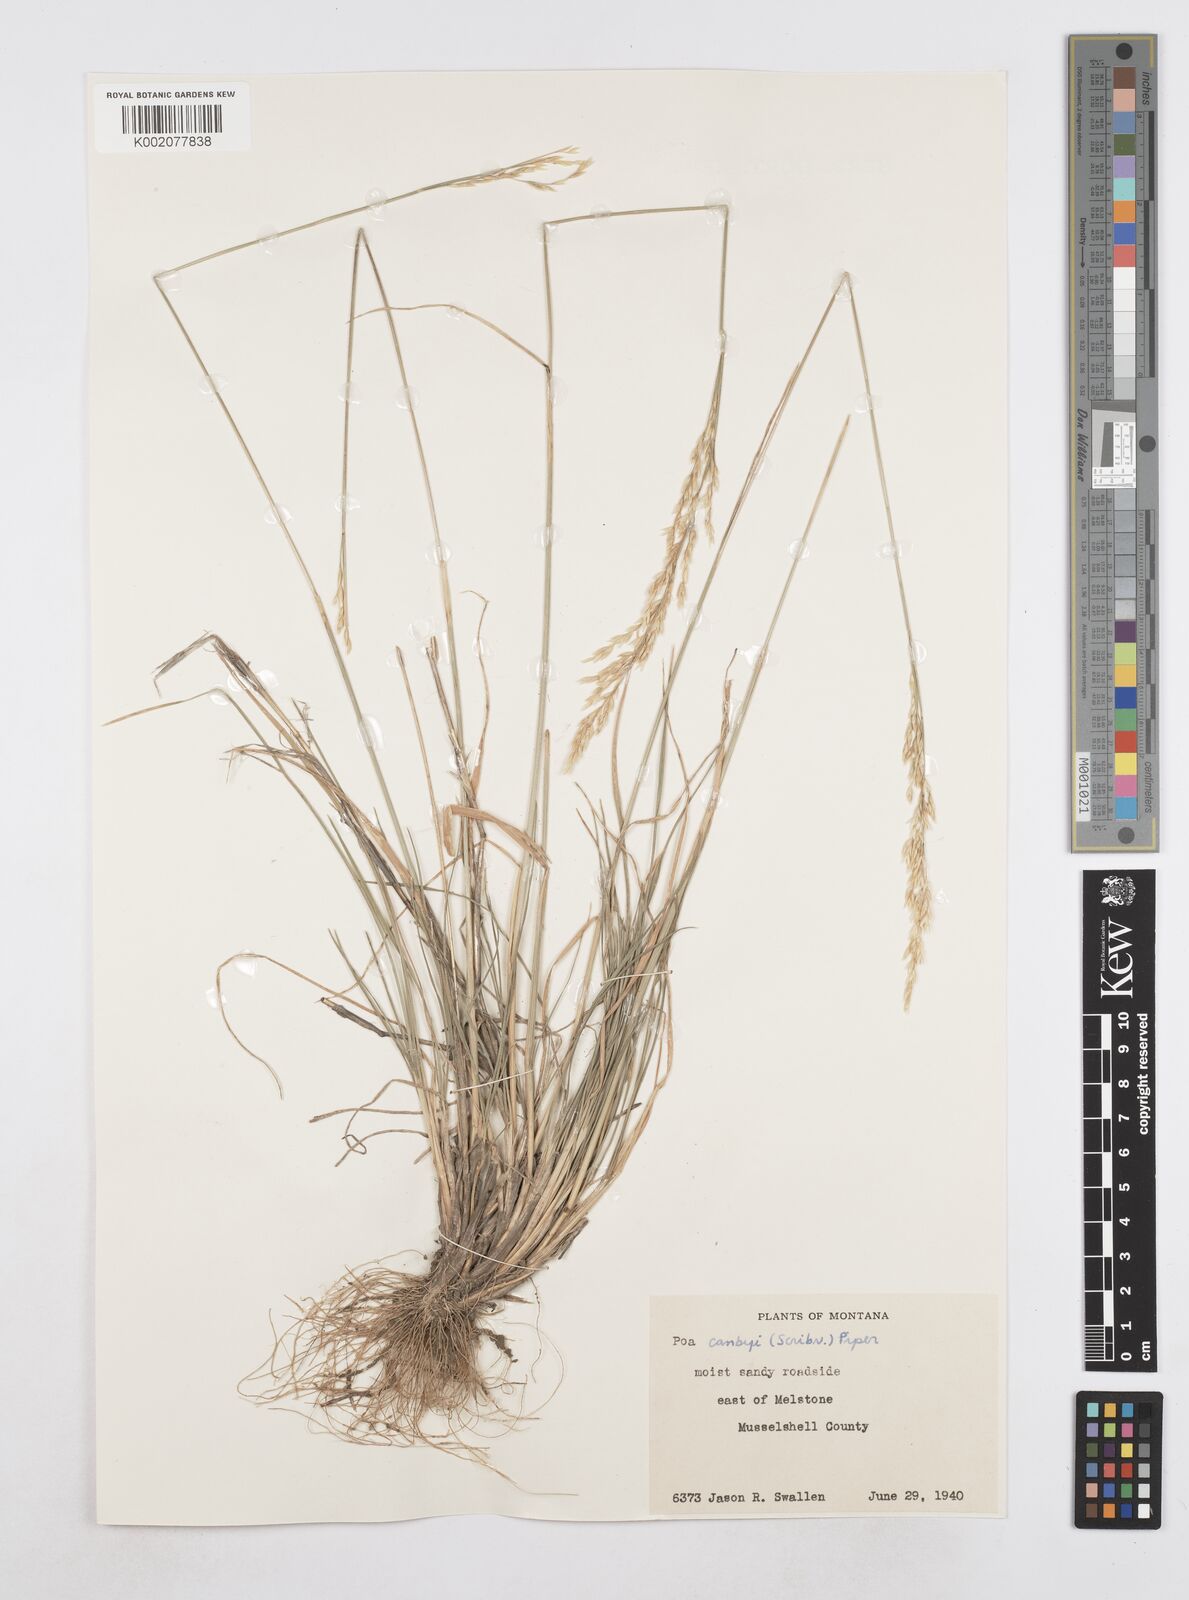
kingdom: Plantae
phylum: Tracheophyta
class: Liliopsida
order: Poales
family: Poaceae
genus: Poa
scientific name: Poa secunda
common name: Sandberg bluegrass
